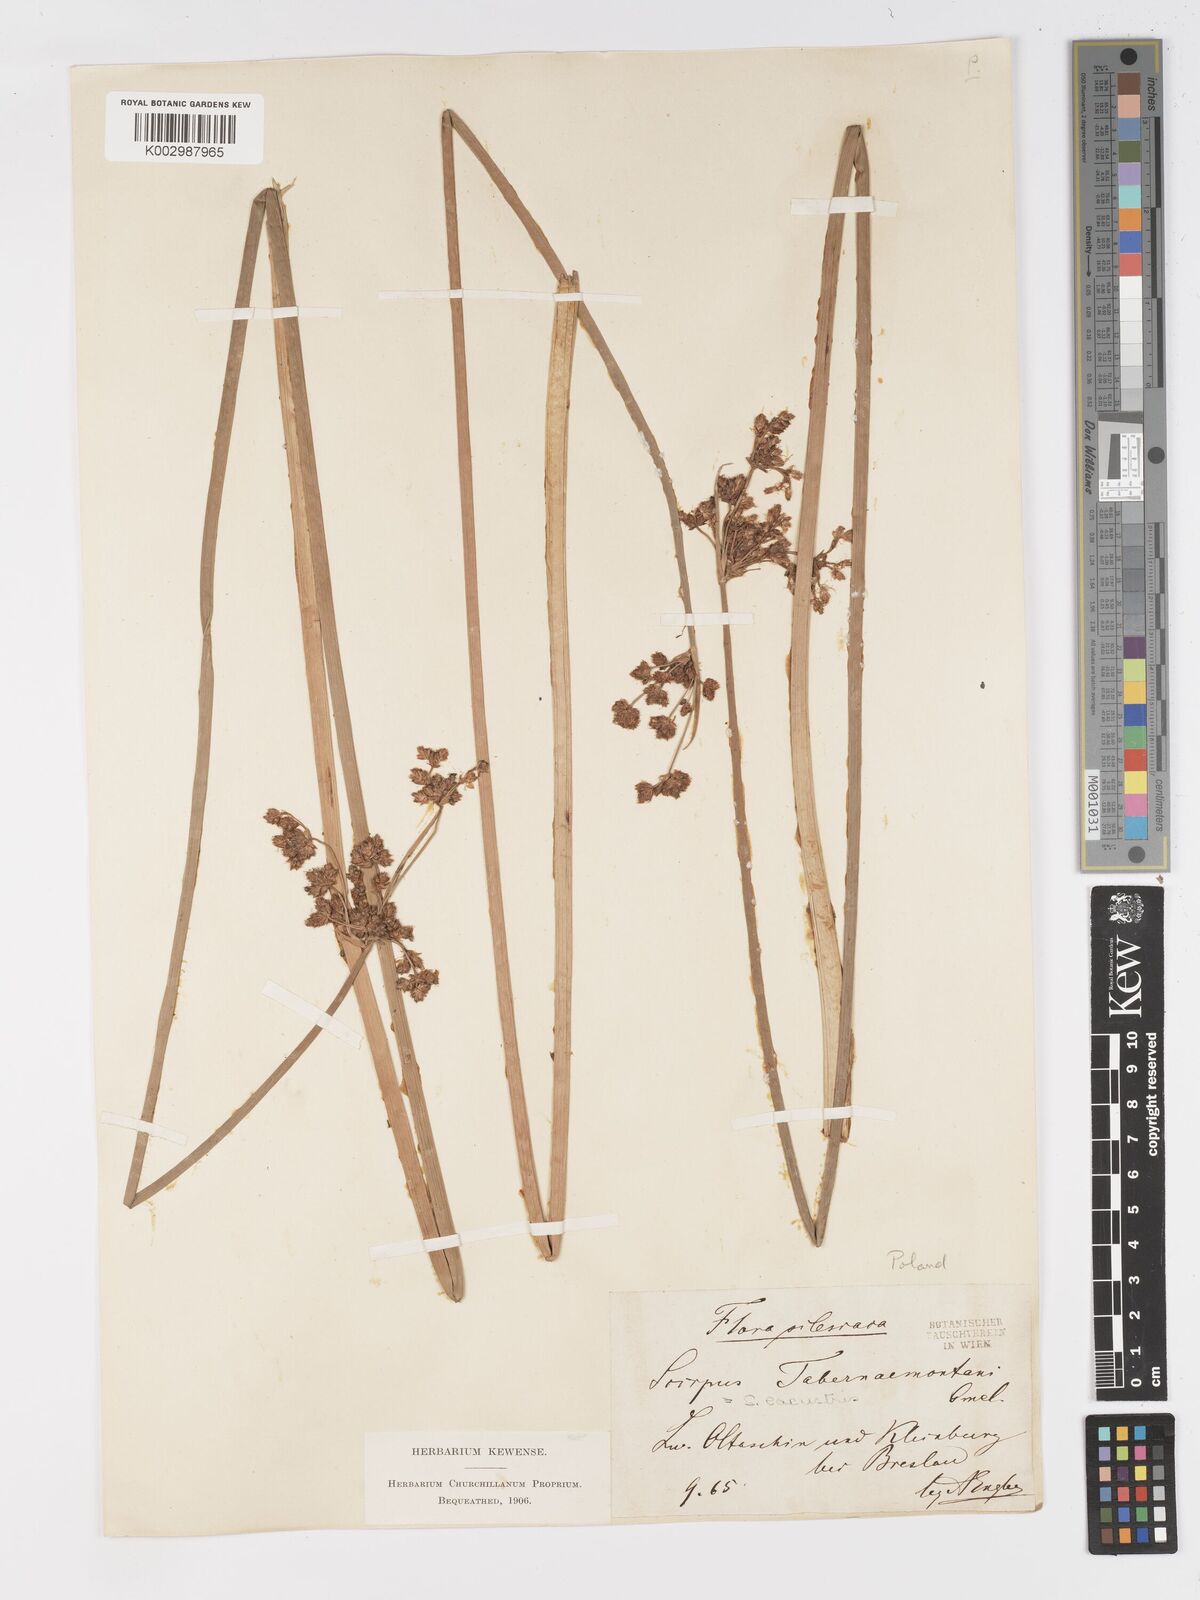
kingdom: Plantae
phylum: Tracheophyta
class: Liliopsida
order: Poales
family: Cyperaceae
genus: Schoenoplectus
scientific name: Schoenoplectus tabernaemontani
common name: Grey club-rush
